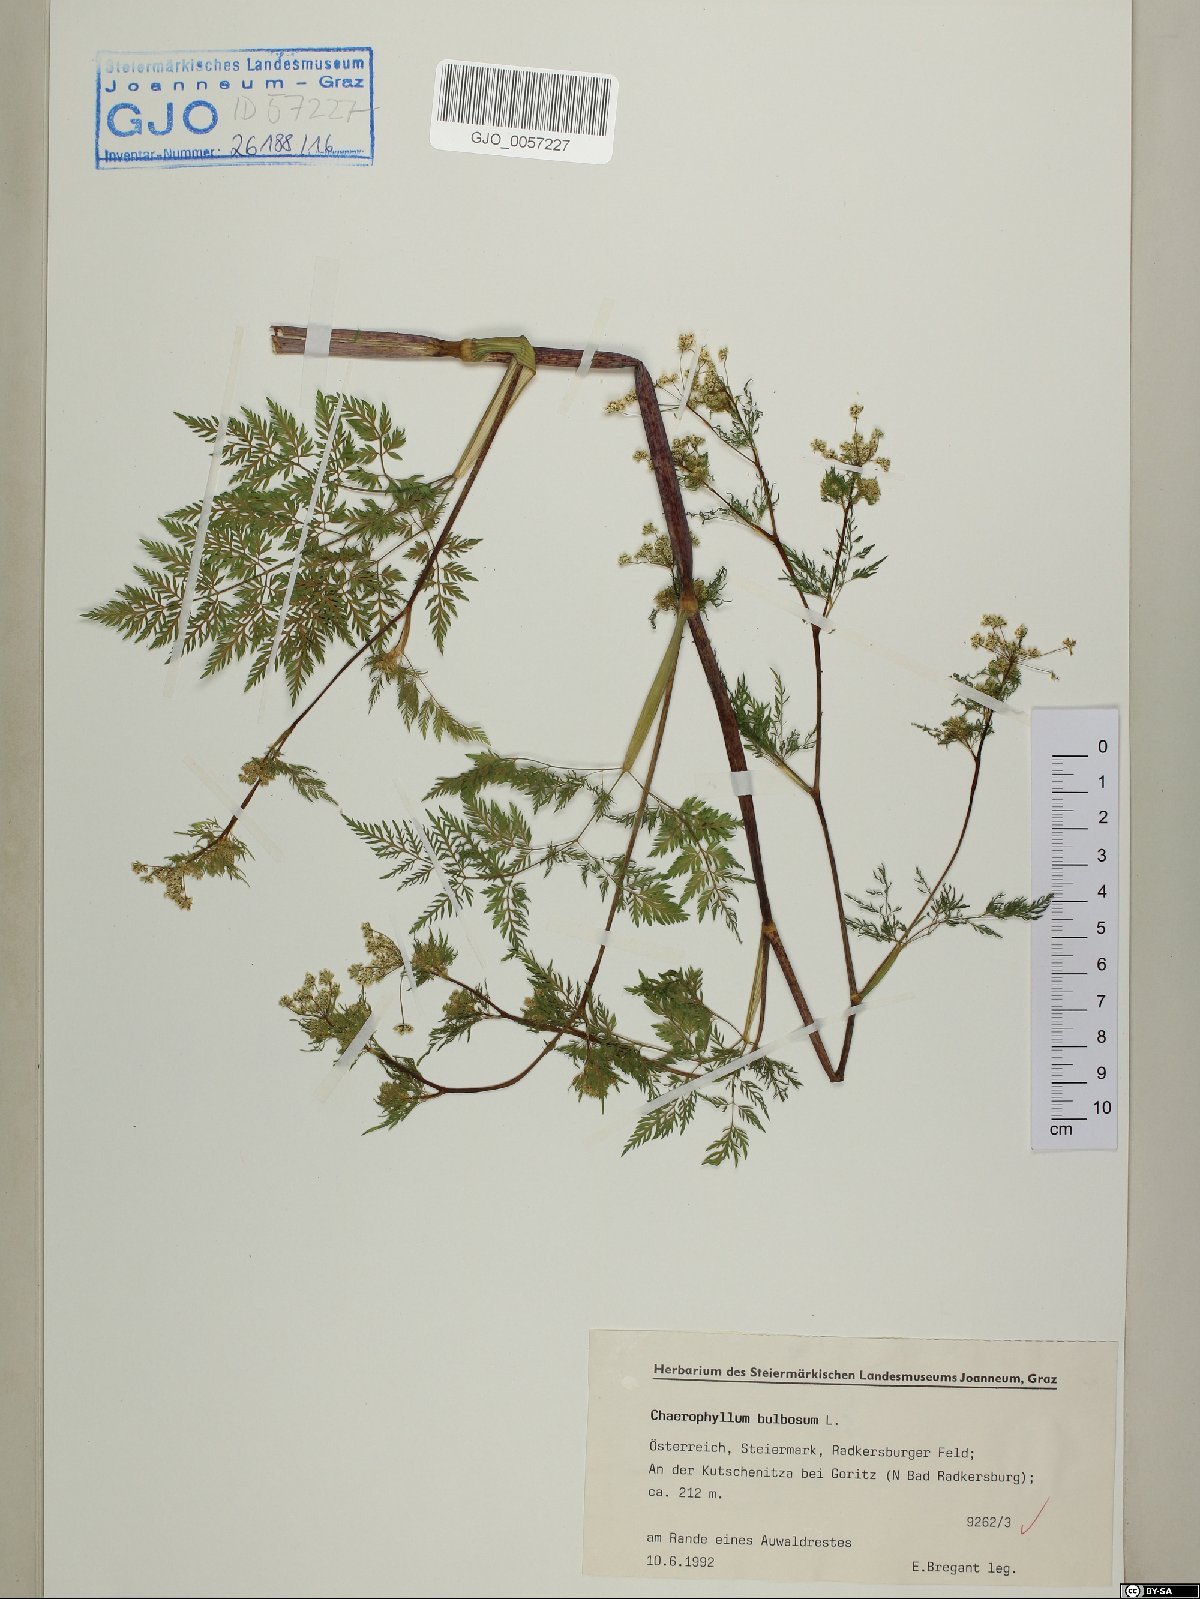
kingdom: Plantae
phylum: Tracheophyta
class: Magnoliopsida
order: Apiales
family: Apiaceae
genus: Chaerophyllum
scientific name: Chaerophyllum bulbosum
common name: Bulbous chervil
